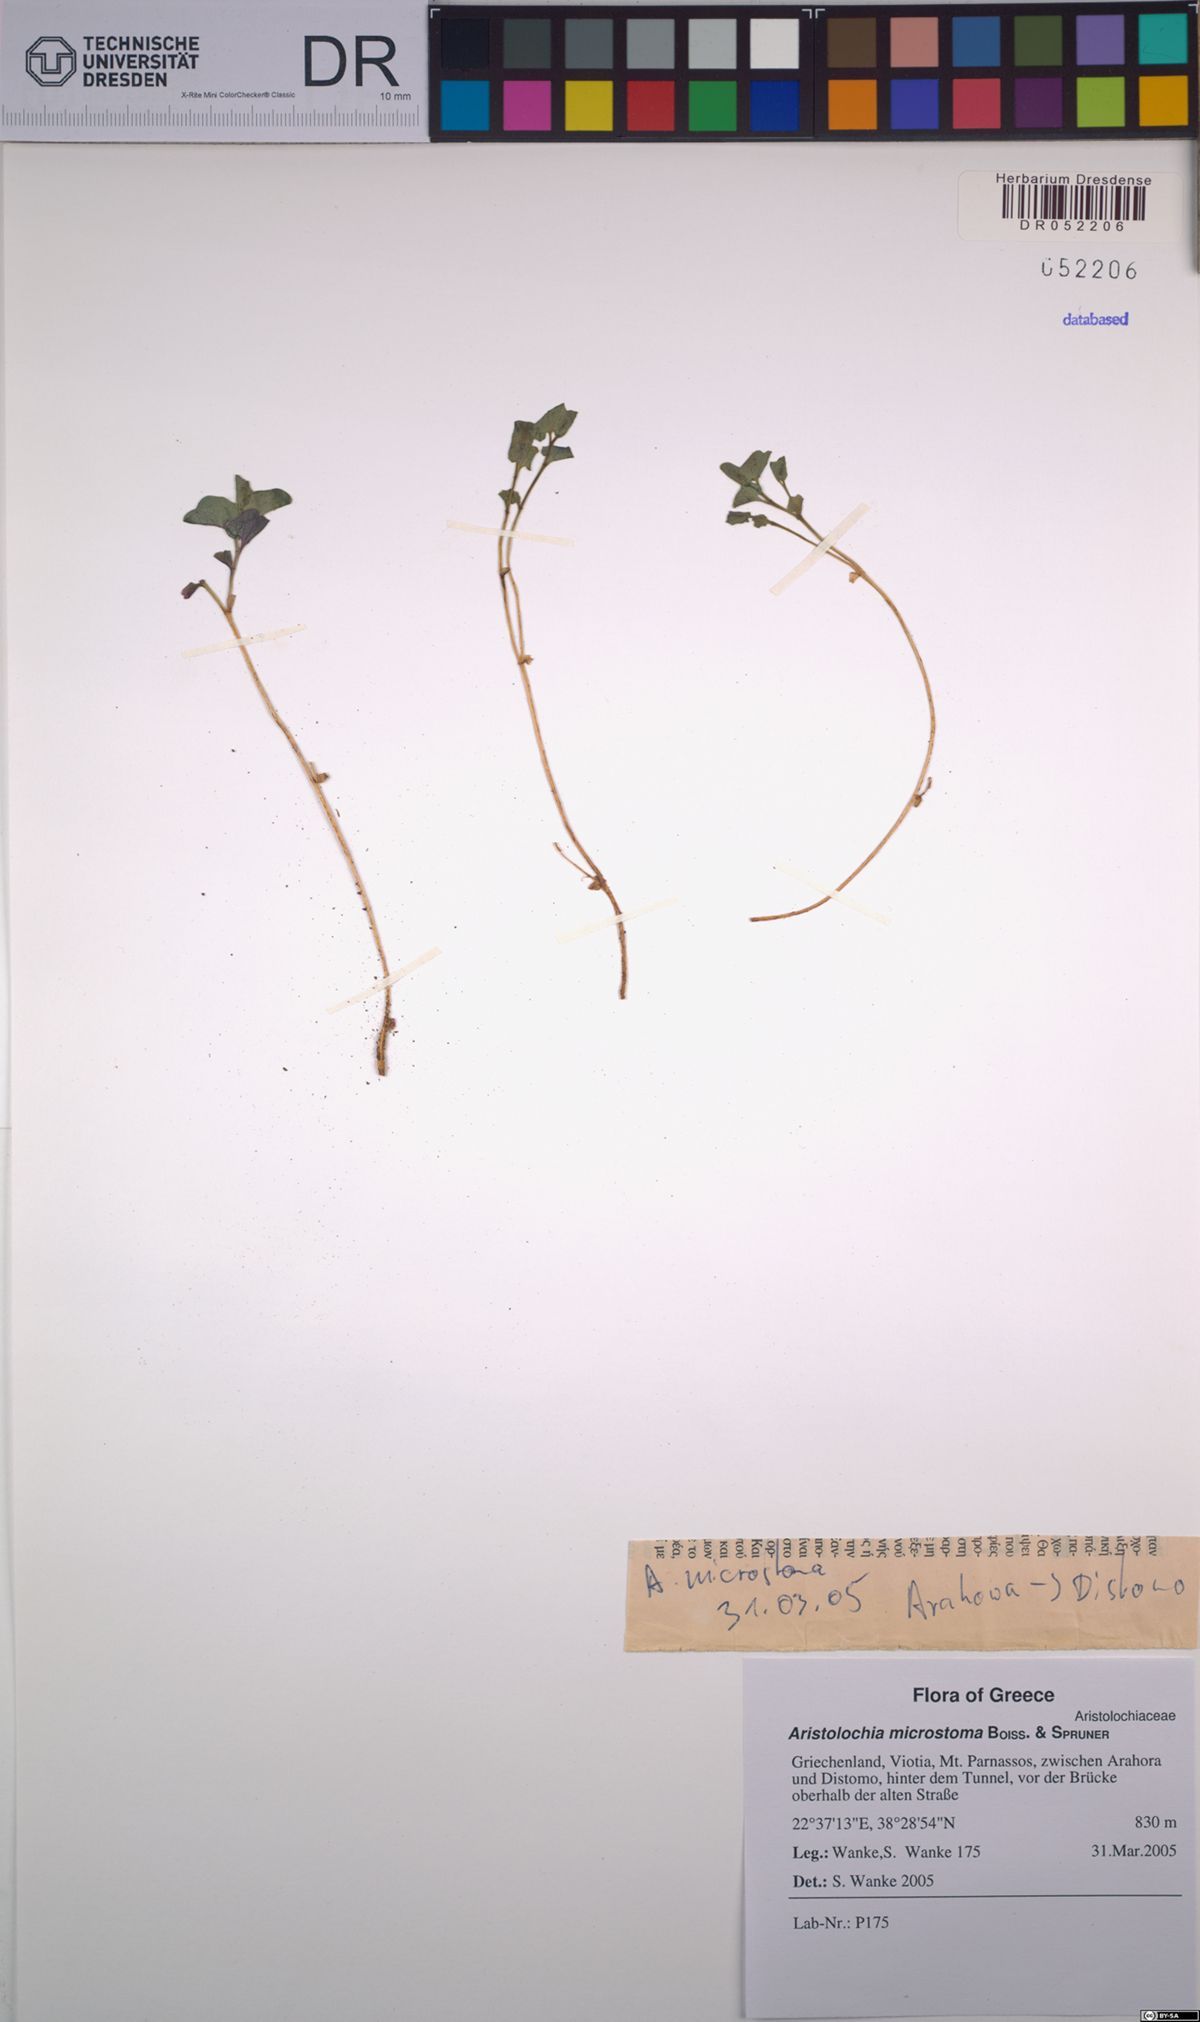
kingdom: Plantae
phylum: Tracheophyta
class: Magnoliopsida
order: Piperales
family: Aristolochiaceae
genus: Aristolochia
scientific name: Aristolochia microstoma
